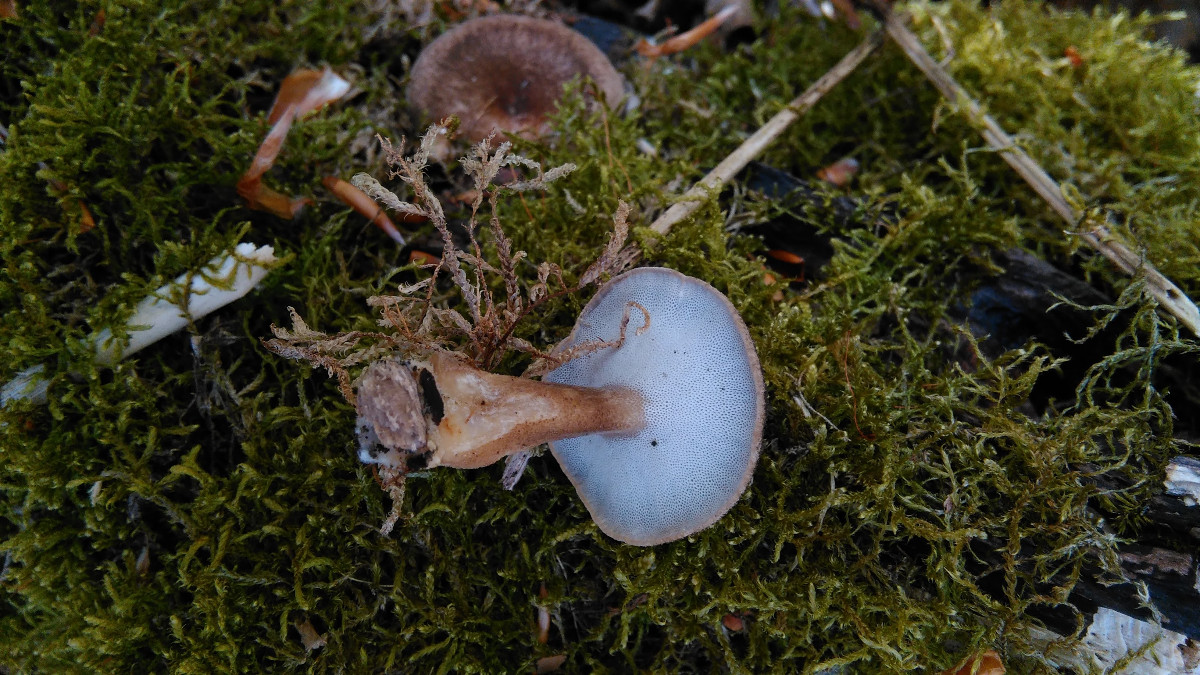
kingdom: Fungi
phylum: Basidiomycota
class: Agaricomycetes
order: Polyporales
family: Polyporaceae
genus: Lentinus
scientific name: Lentinus substrictus
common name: forårs-stilkporesvamp
